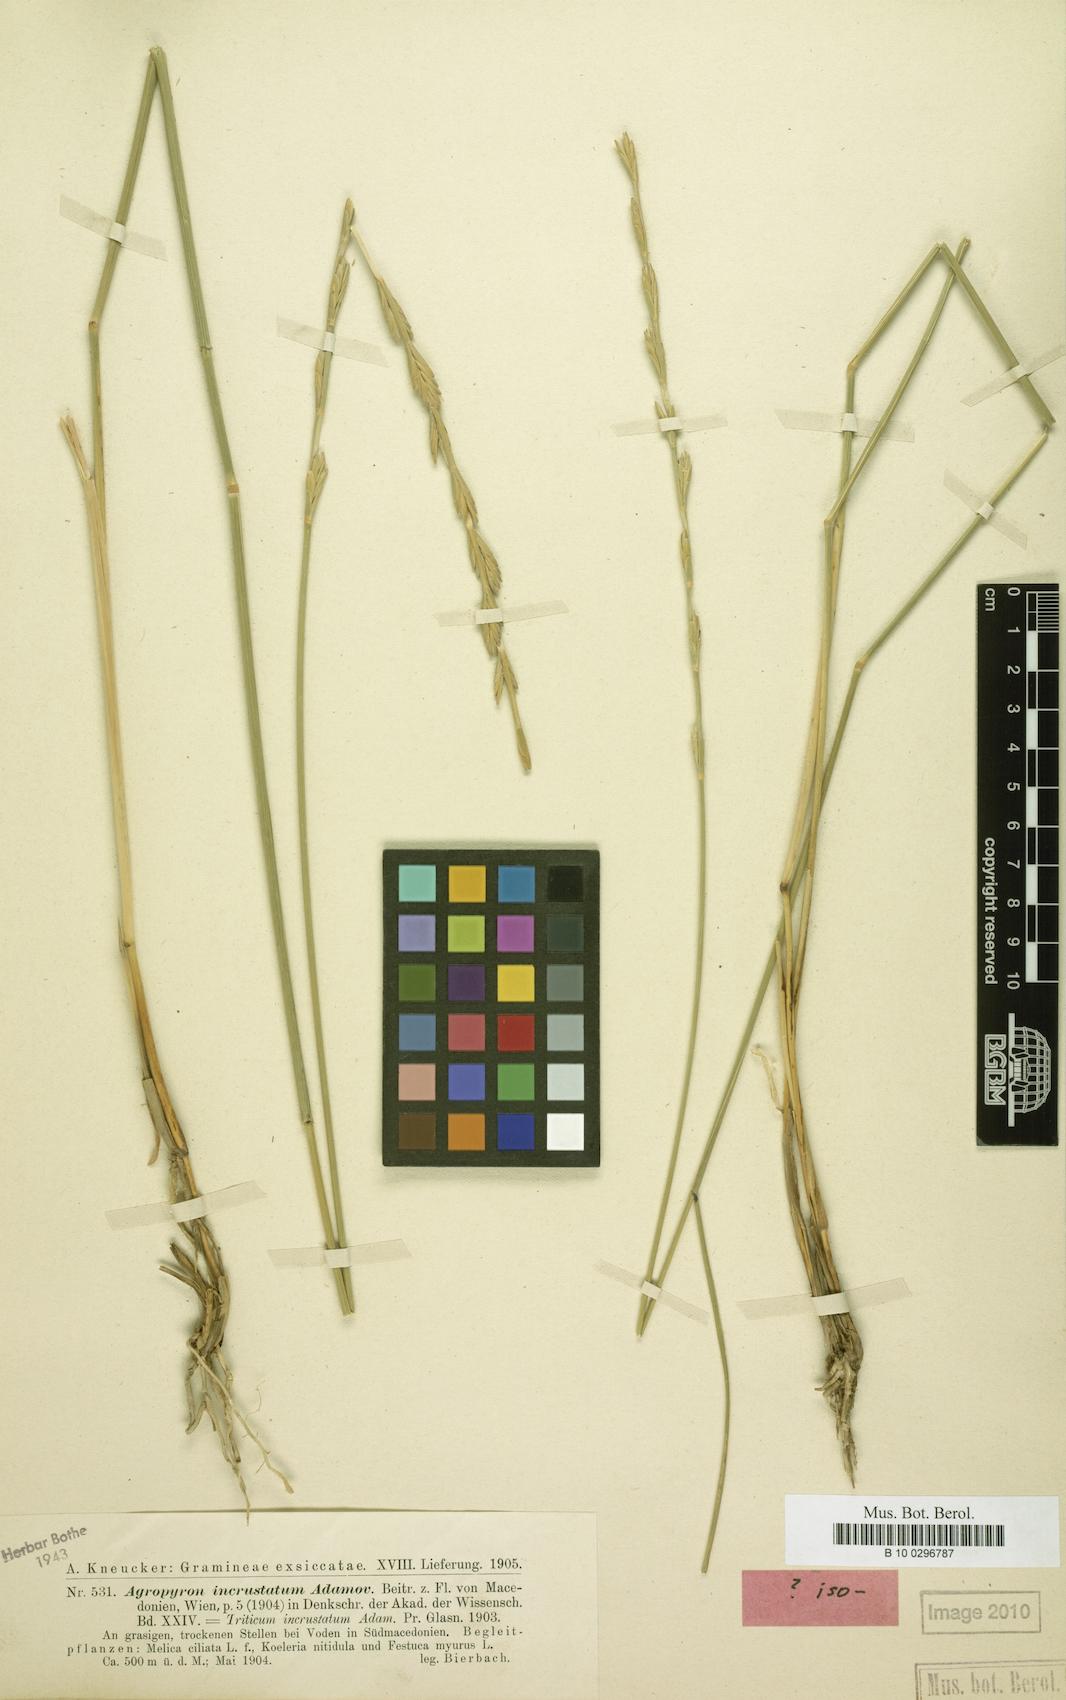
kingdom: Plantae
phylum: Tracheophyta
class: Liliopsida
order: Poales
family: Poaceae
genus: Thinopyrum
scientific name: Thinopyrum varnense
